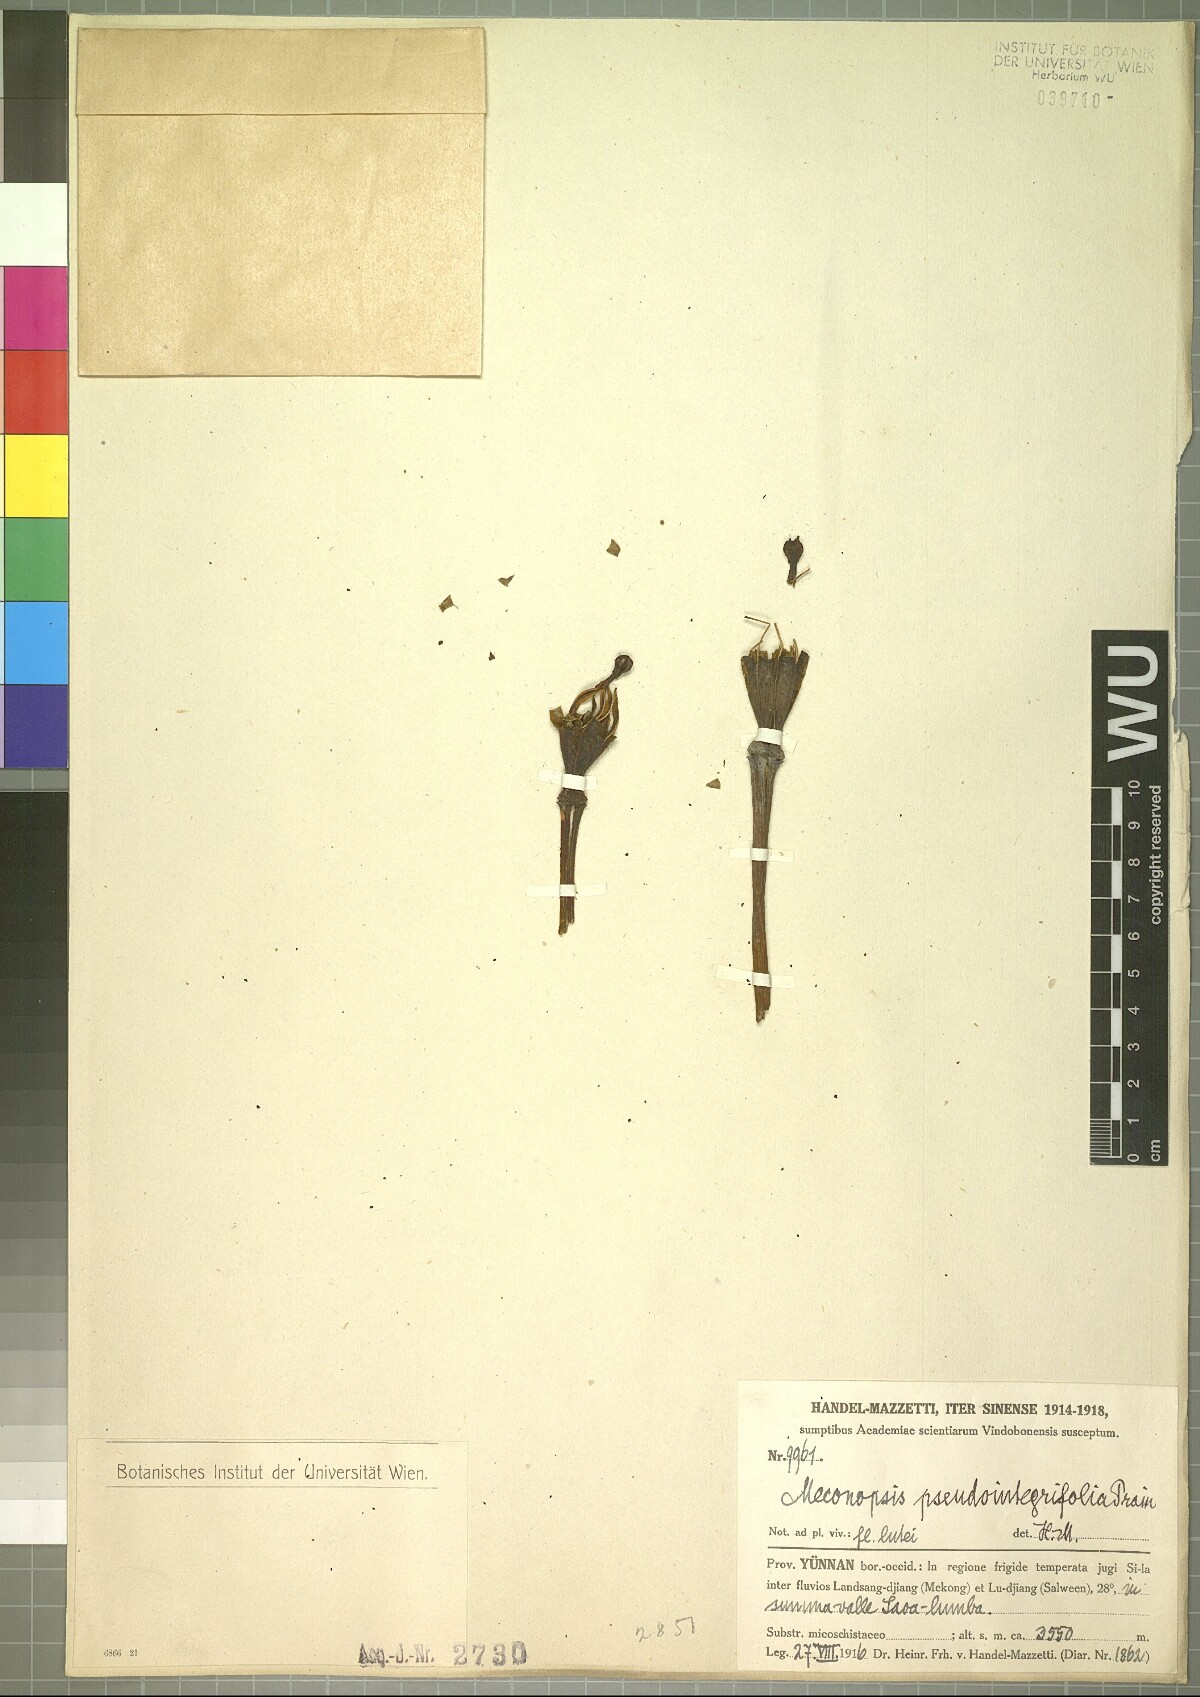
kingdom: Plantae
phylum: Tracheophyta
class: Magnoliopsida
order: Ranunculales
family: Papaveraceae
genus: Meconopsis
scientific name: Meconopsis pseudointegrifolia
